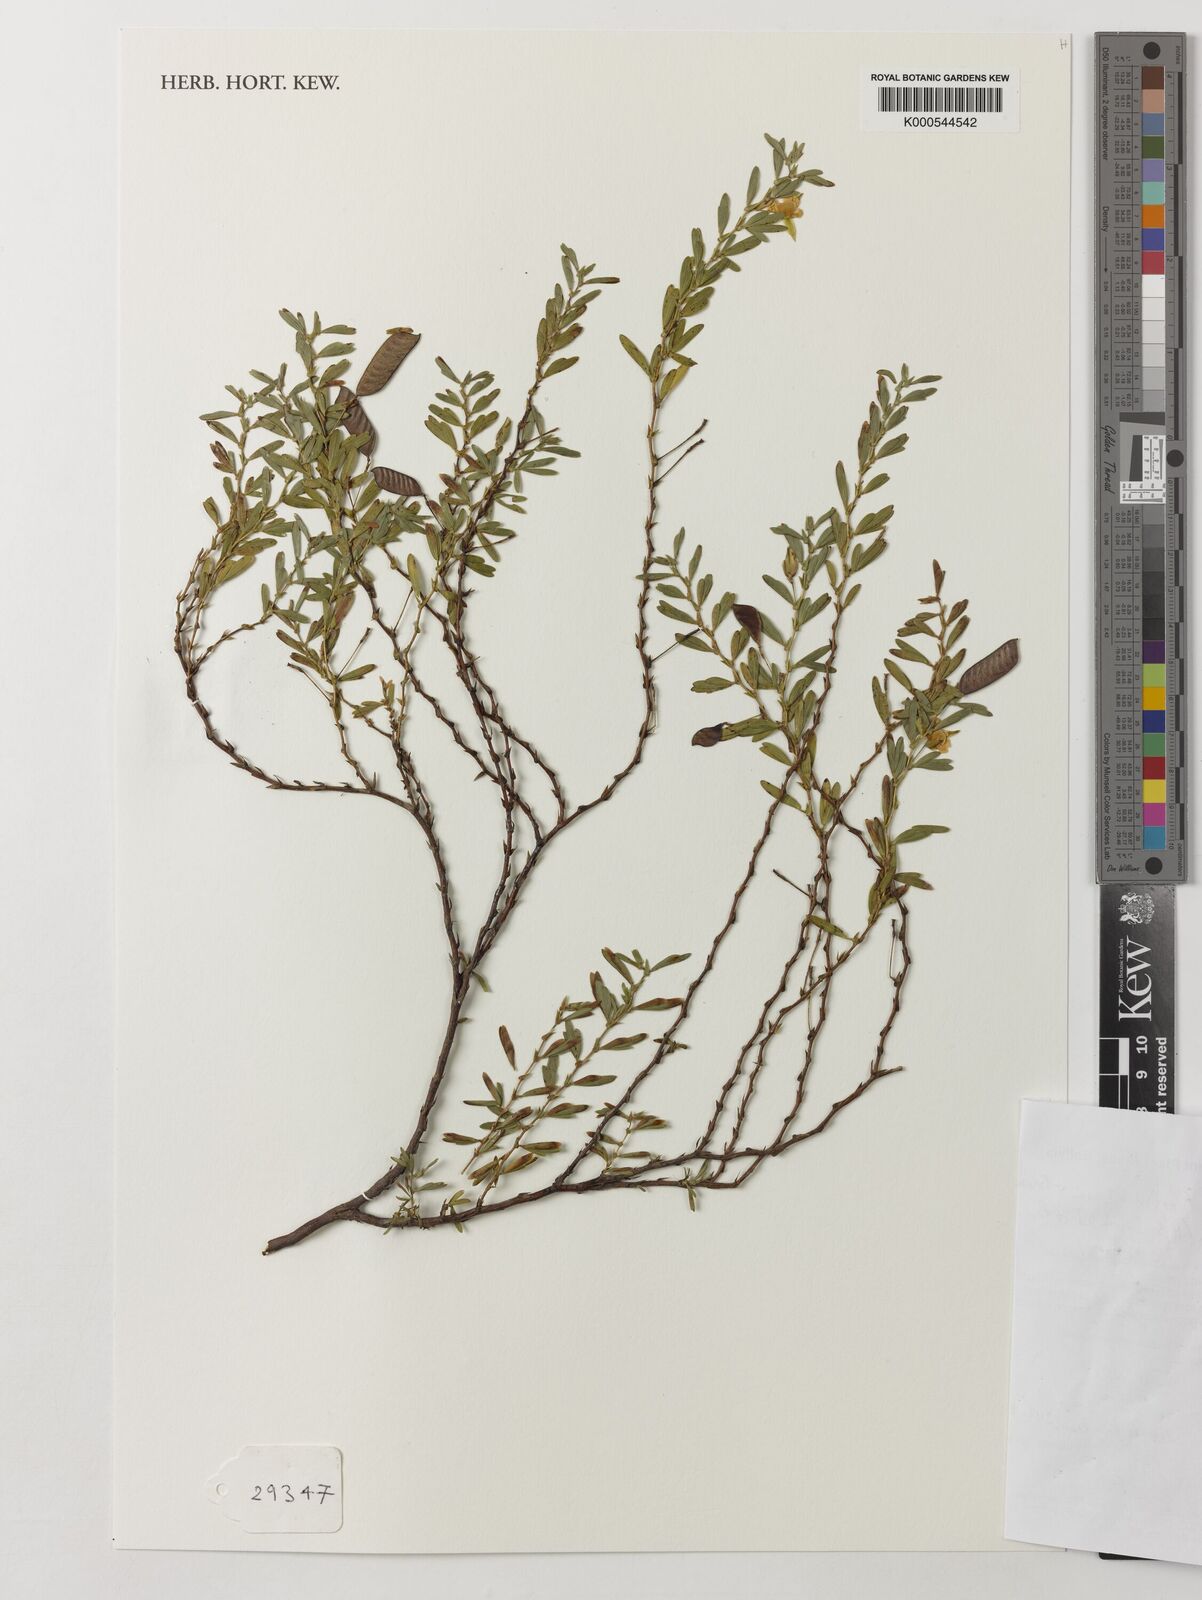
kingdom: Plantae
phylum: Tracheophyta
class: Magnoliopsida
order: Fabales
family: Fabaceae
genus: Chamaecrista
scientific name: Chamaecrista ramosa
